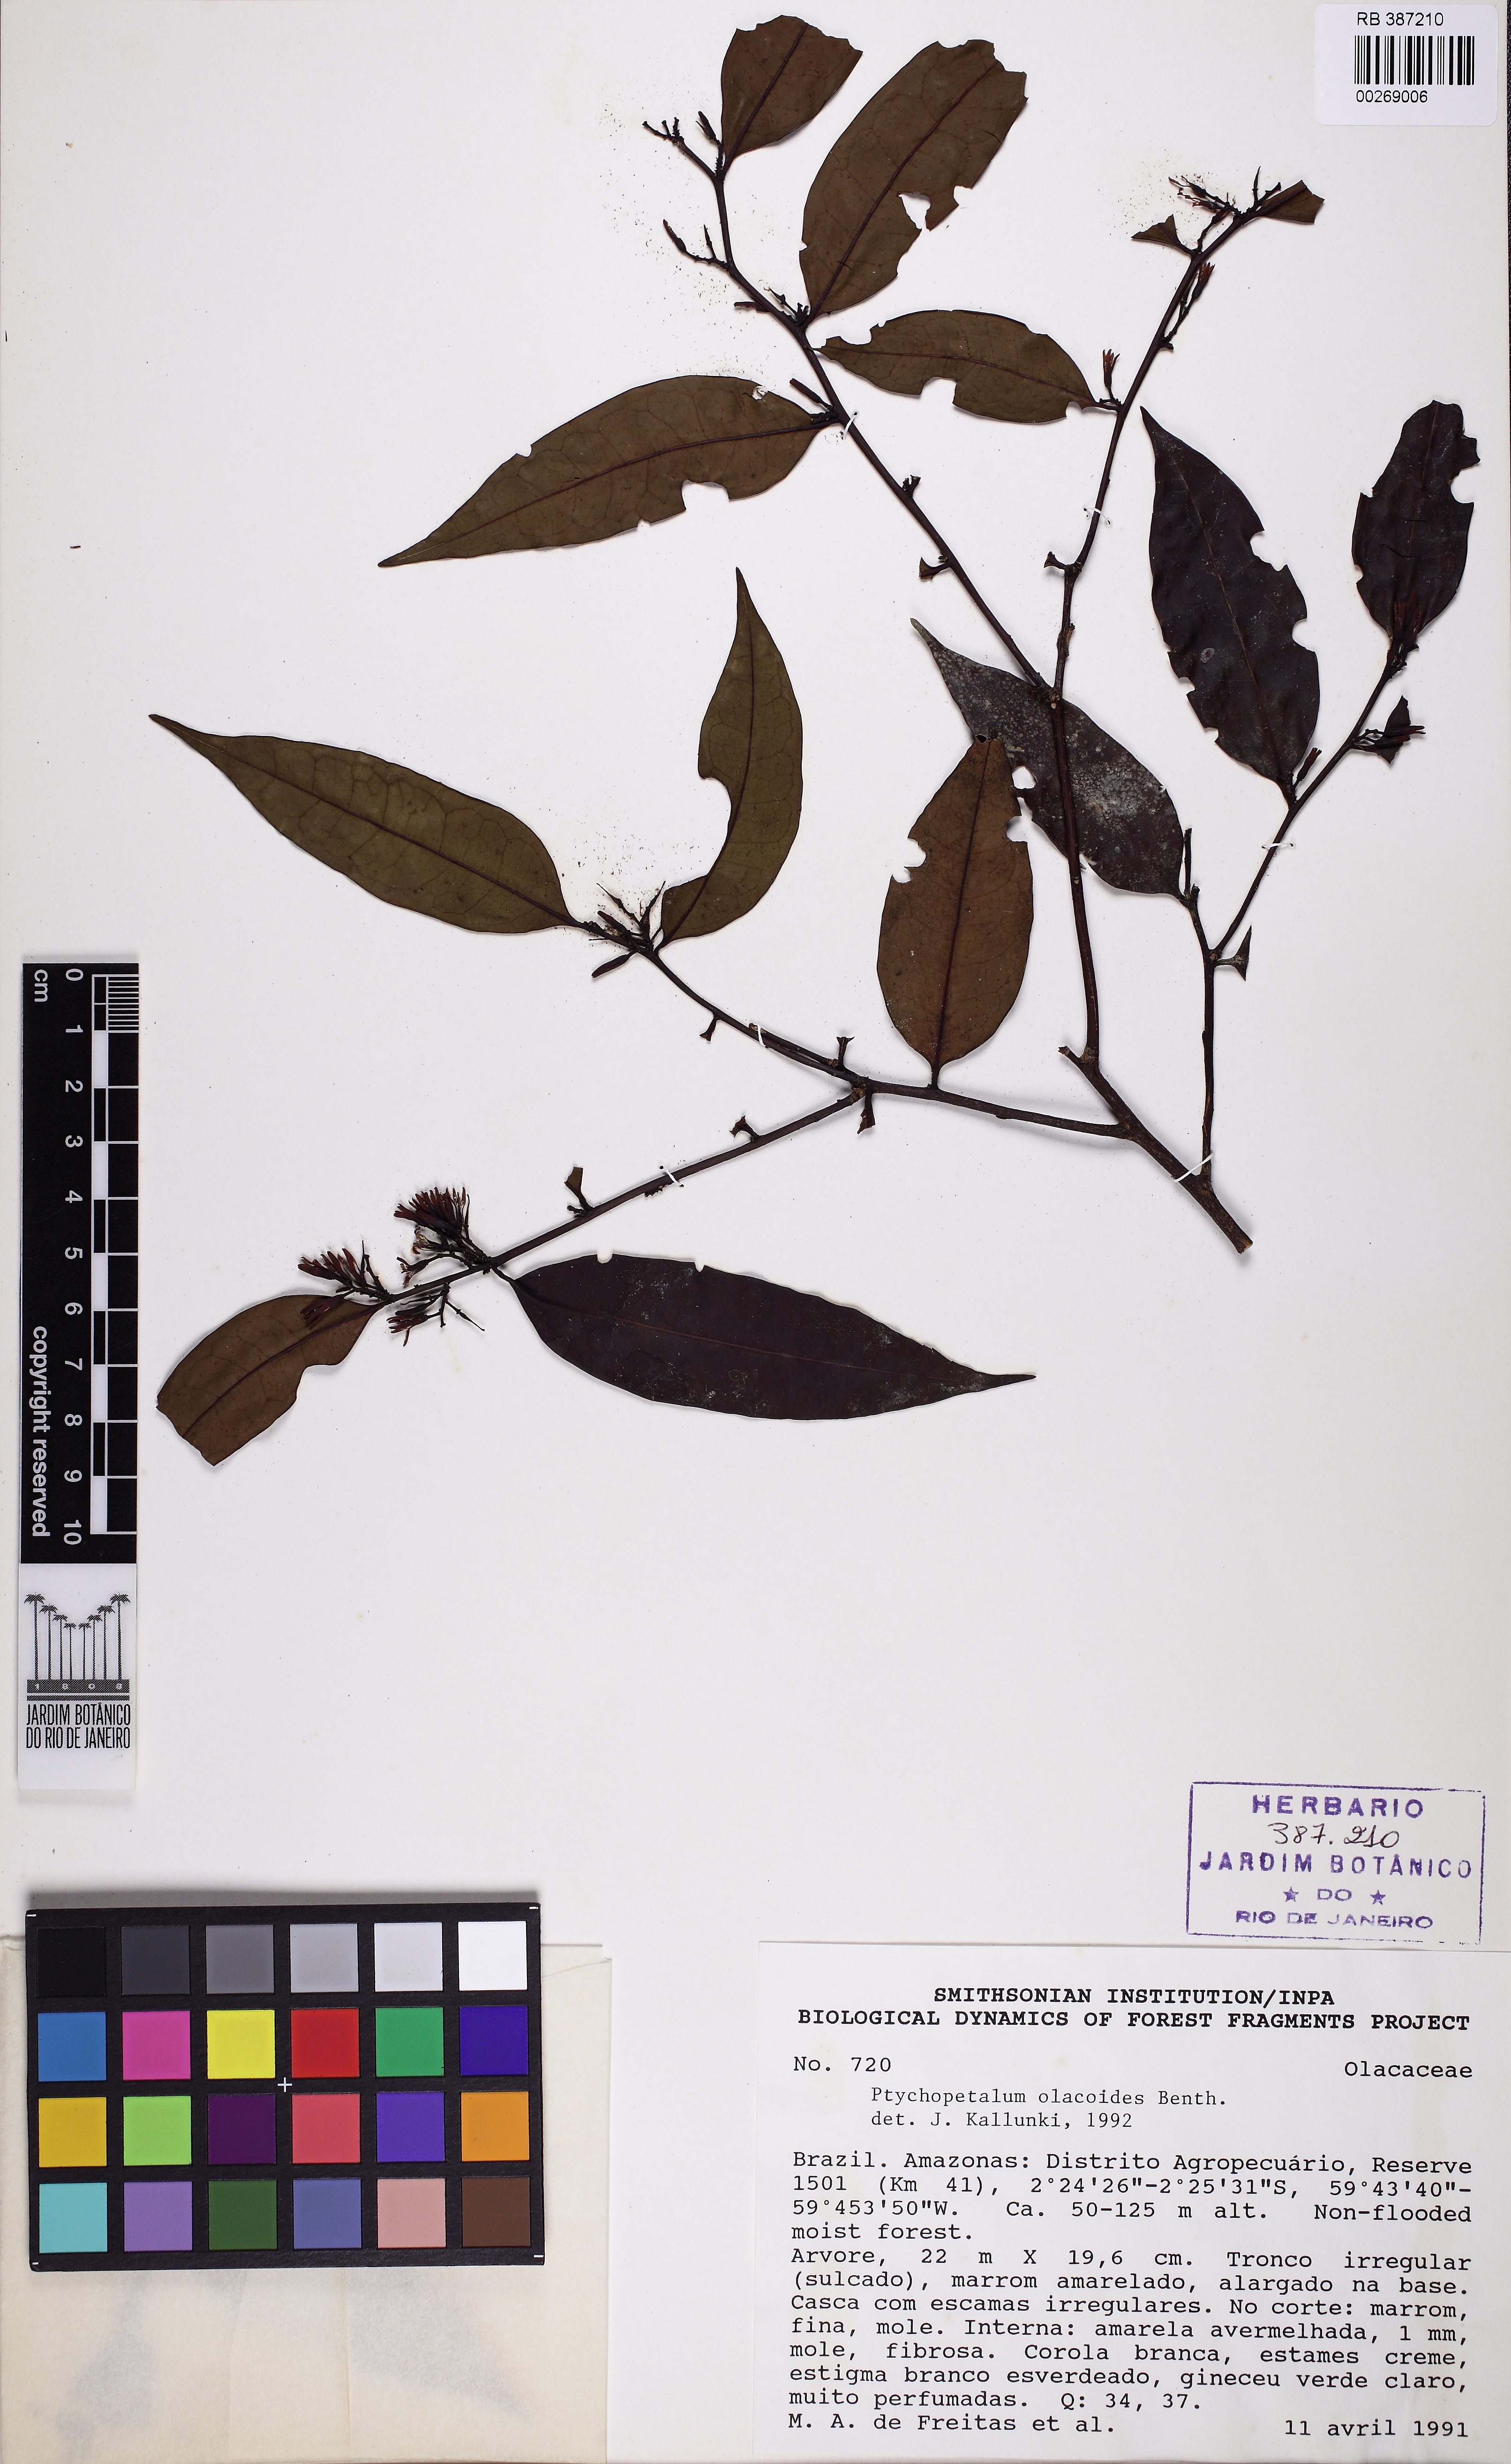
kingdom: Plantae
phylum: Tracheophyta
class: Magnoliopsida
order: Santalales
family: Olacaceae
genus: Ptychopetalum
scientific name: Ptychopetalum olacoides
